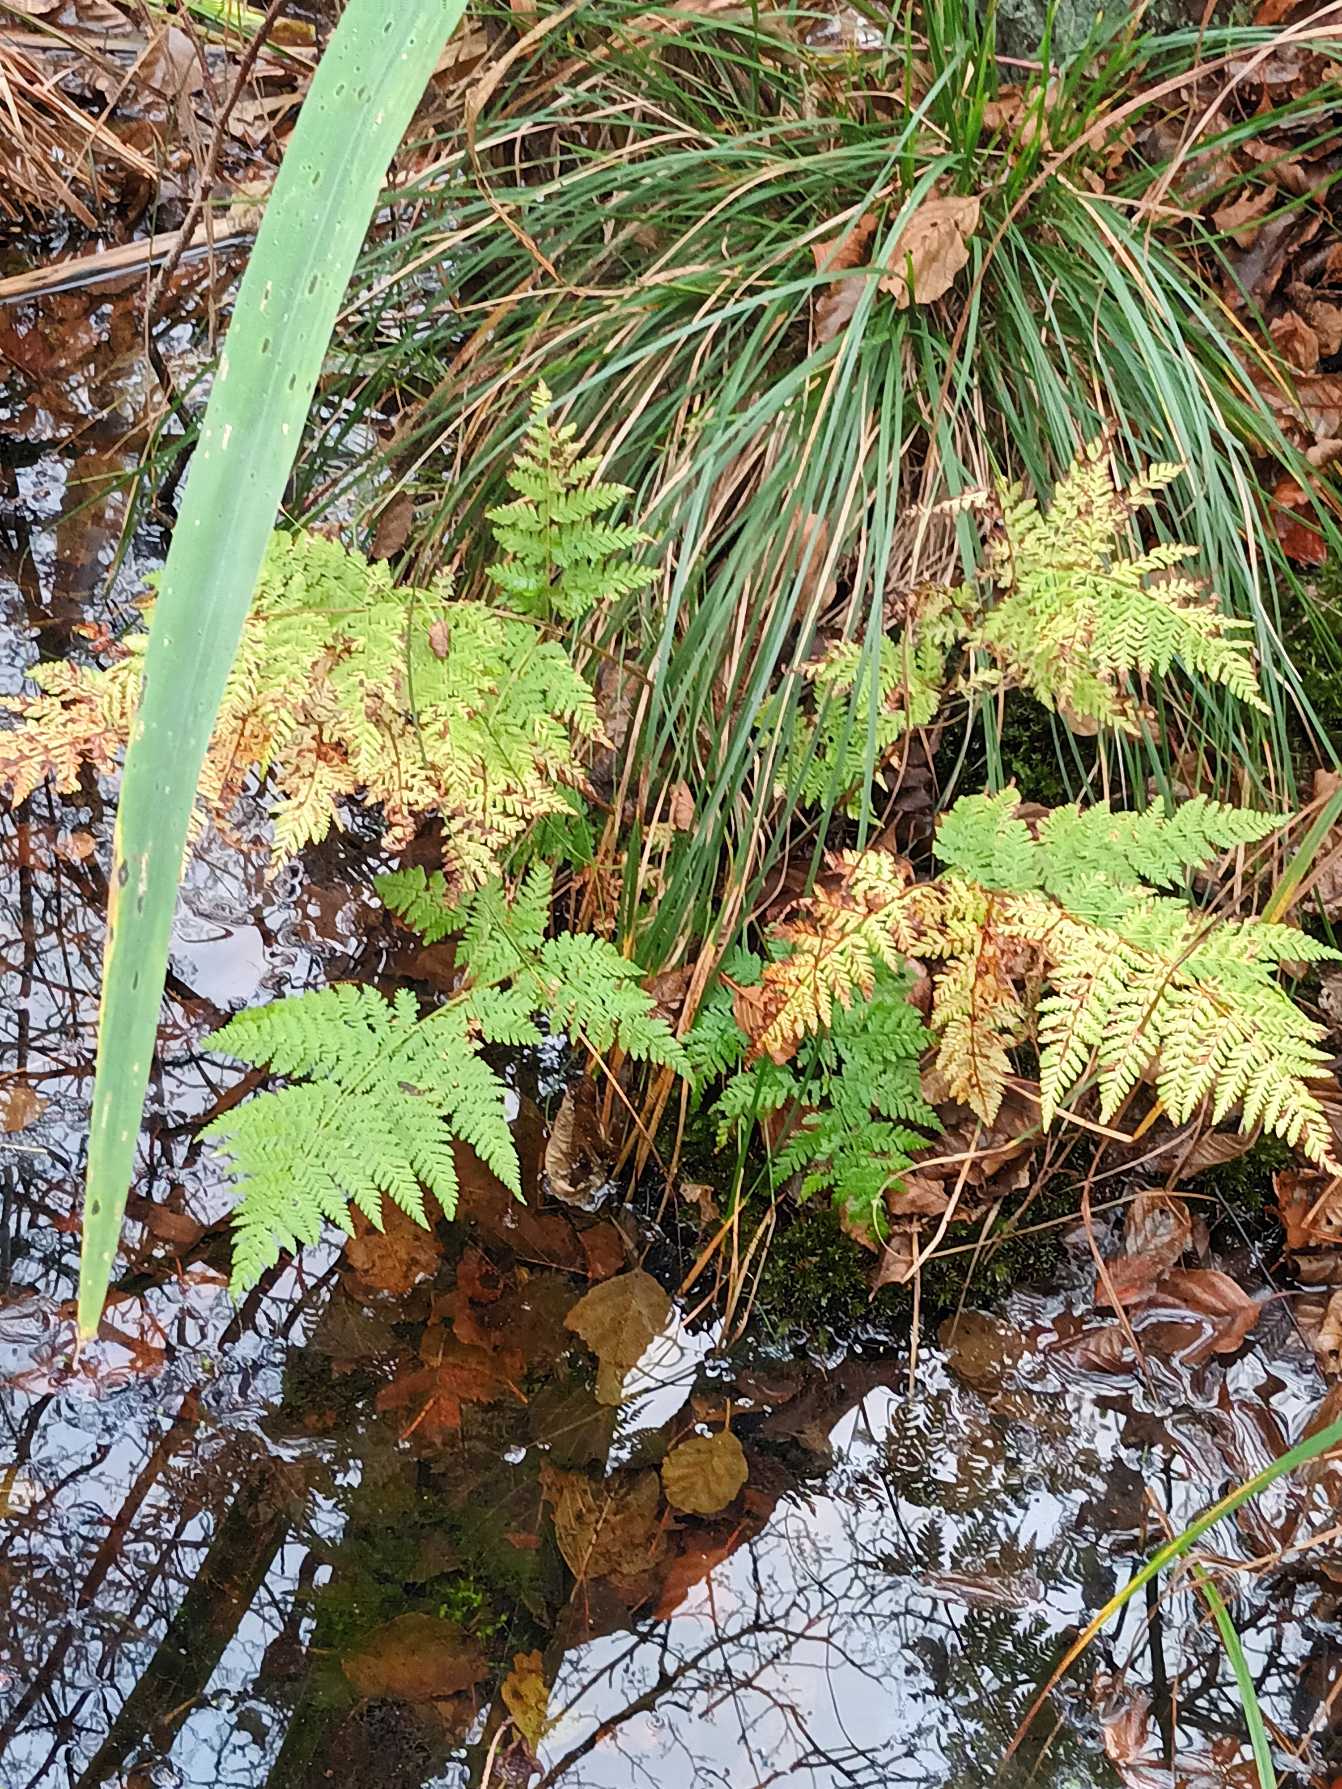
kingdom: Plantae
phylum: Tracheophyta
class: Polypodiopsida
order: Polypodiales
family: Dryopteridaceae
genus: Dryopteris
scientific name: Dryopteris expansa
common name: Finbladet mangeløv
